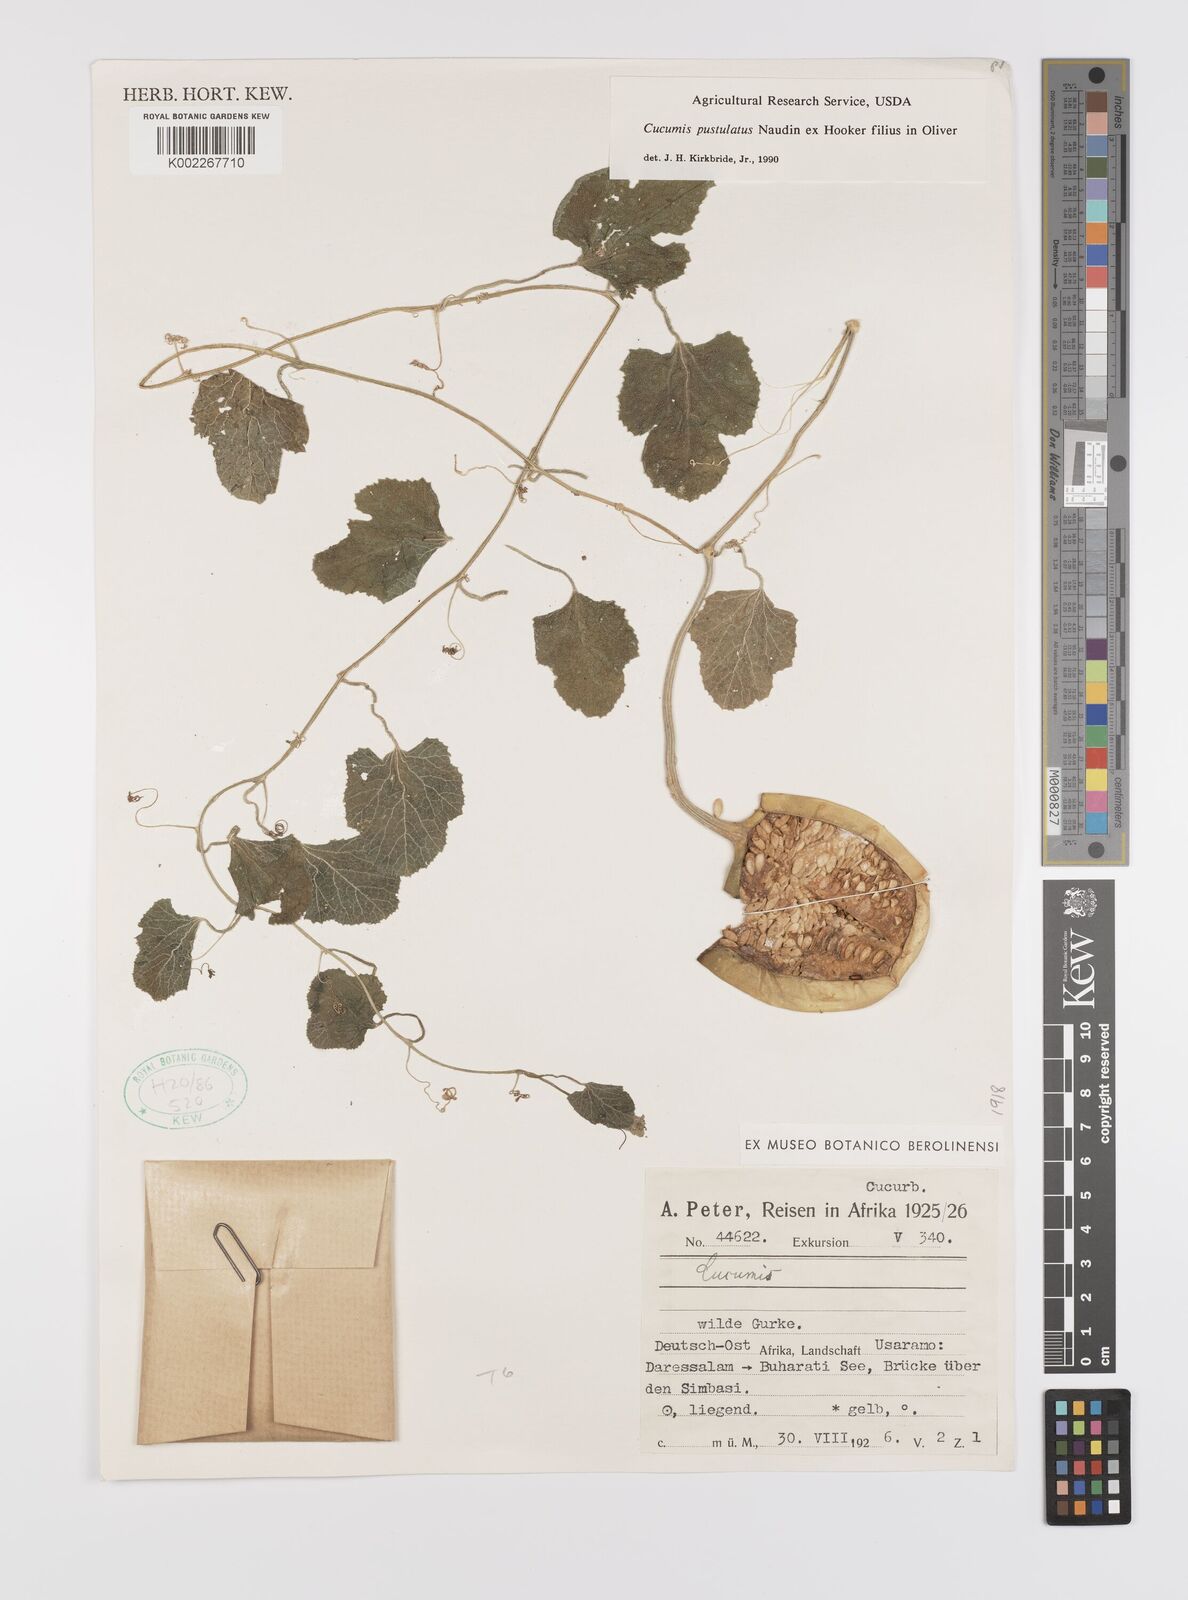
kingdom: Plantae
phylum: Tracheophyta
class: Magnoliopsida
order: Cucurbitales
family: Cucurbitaceae
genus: Cucumis
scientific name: Cucumis pustulatus
